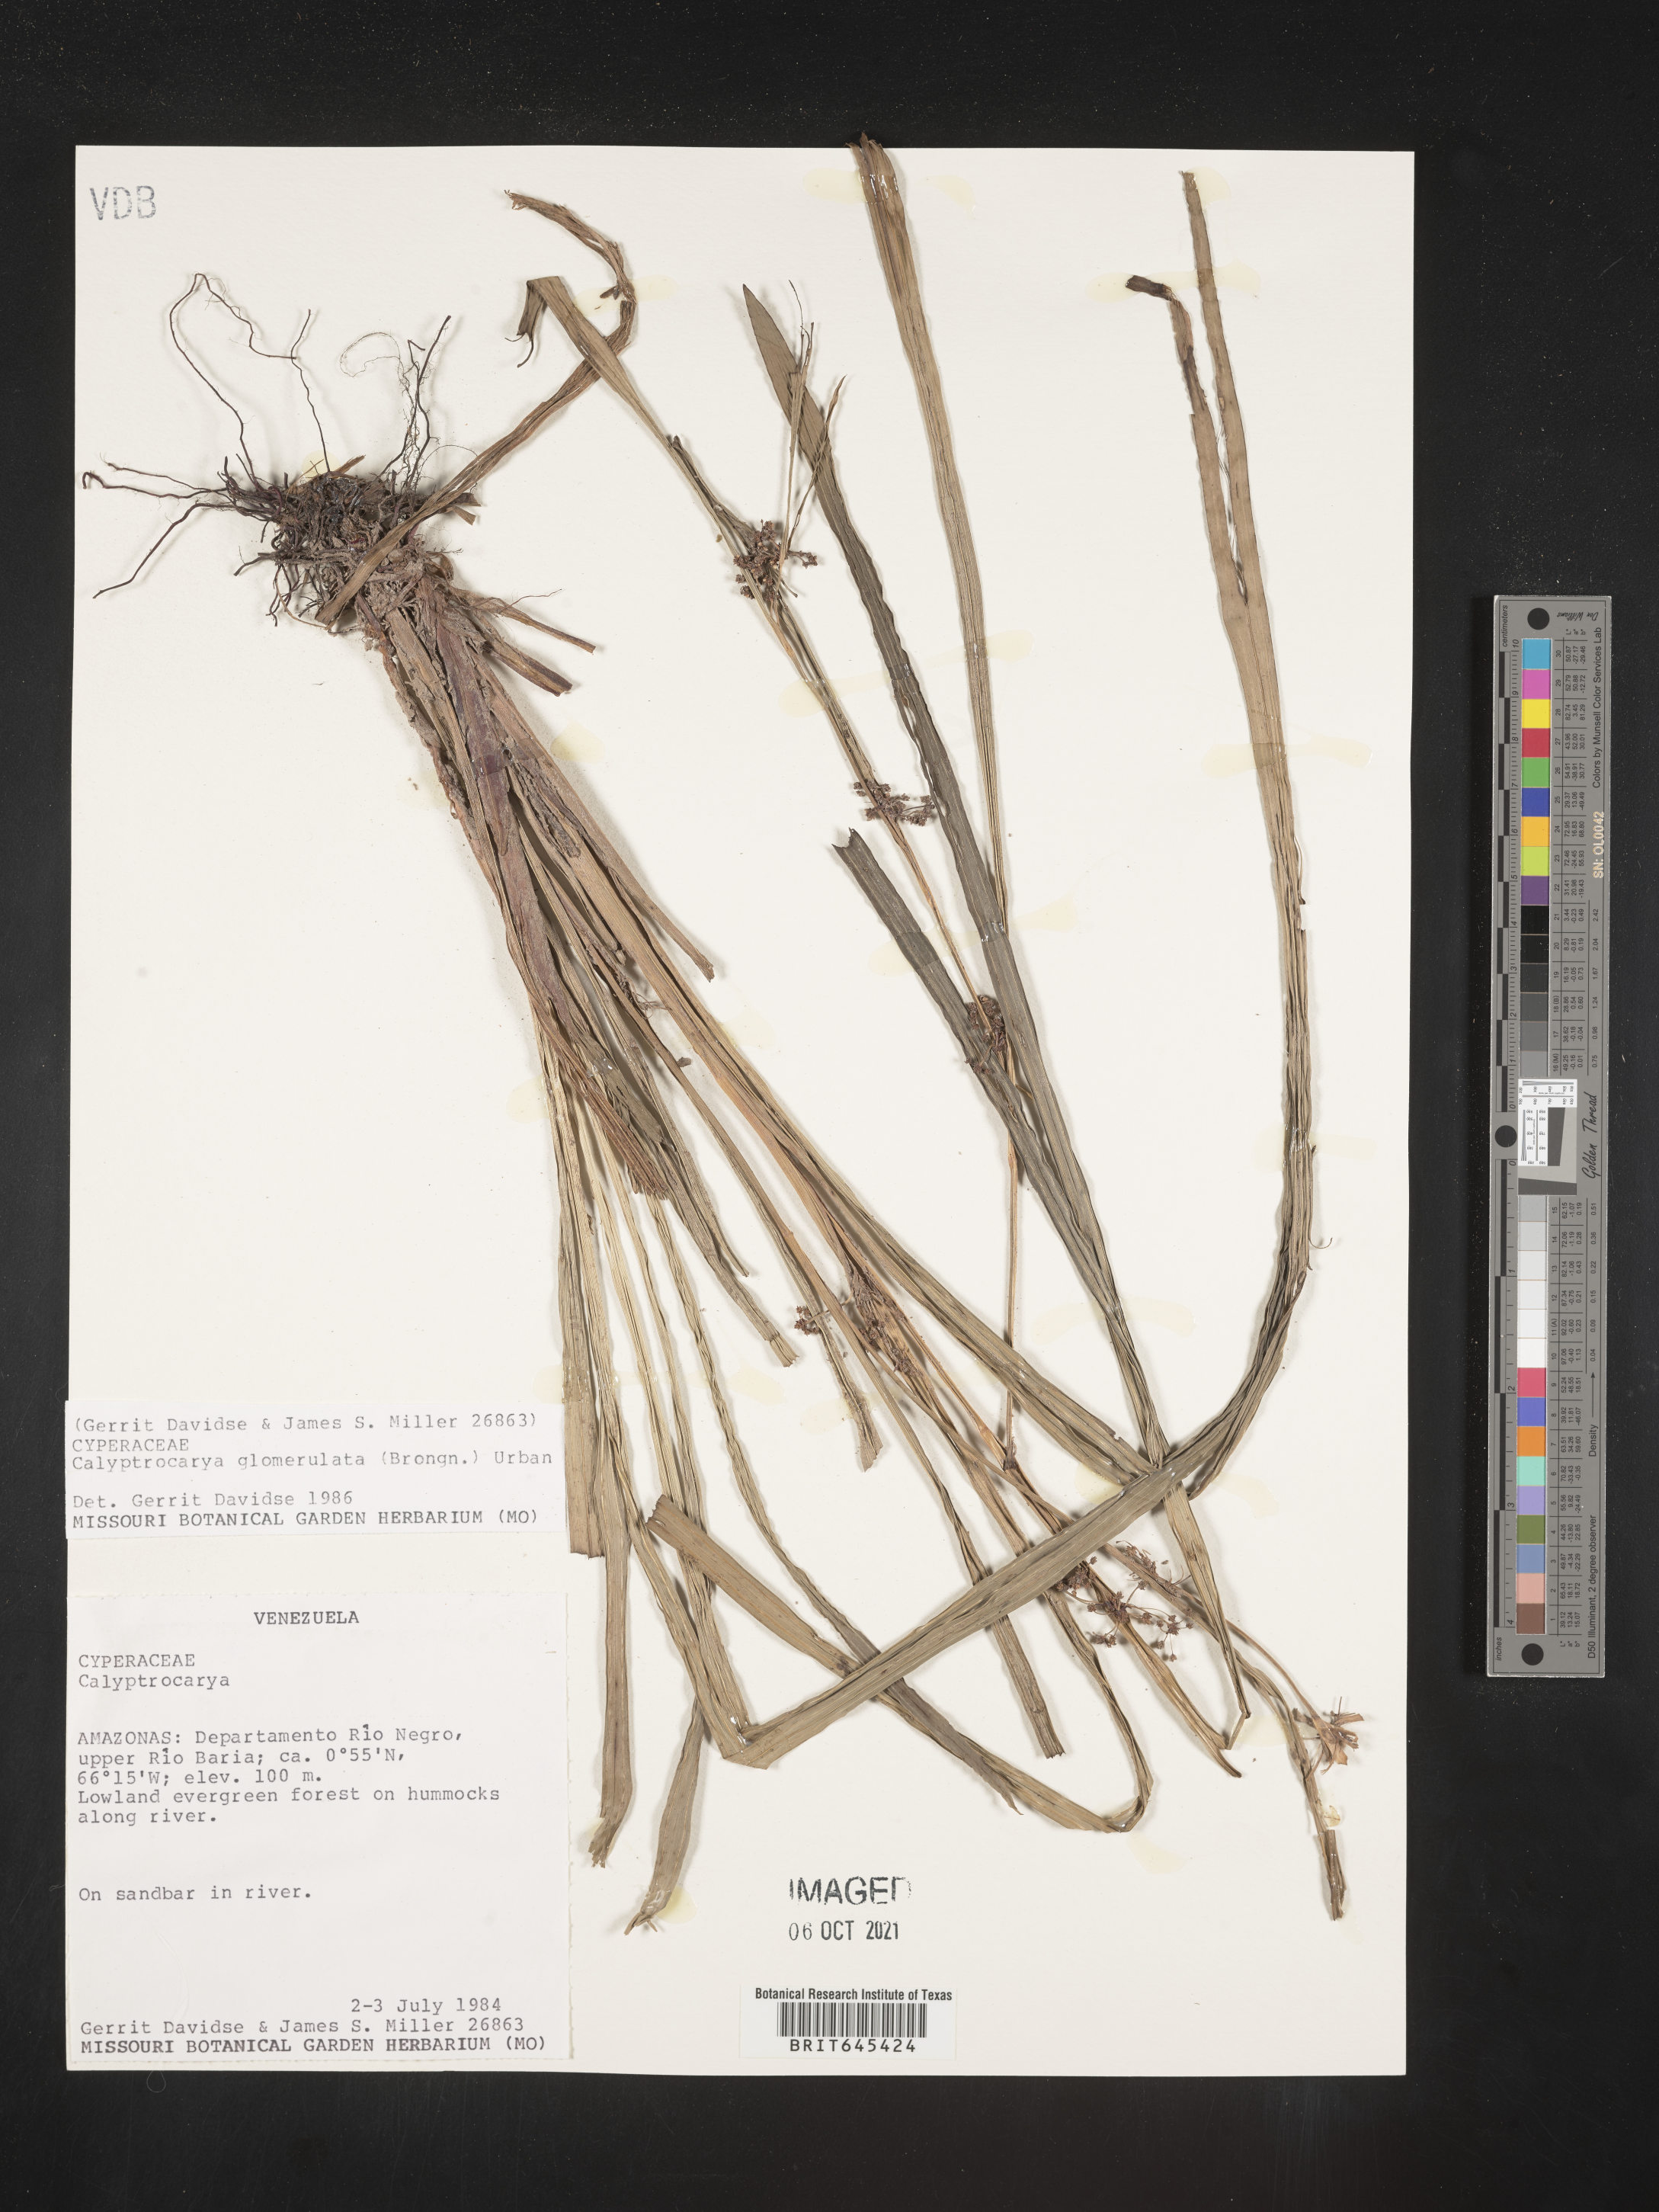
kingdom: Plantae
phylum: Tracheophyta
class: Liliopsida
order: Poales
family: Cyperaceae
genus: Calyptrocarya
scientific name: Calyptrocarya glomerulata
